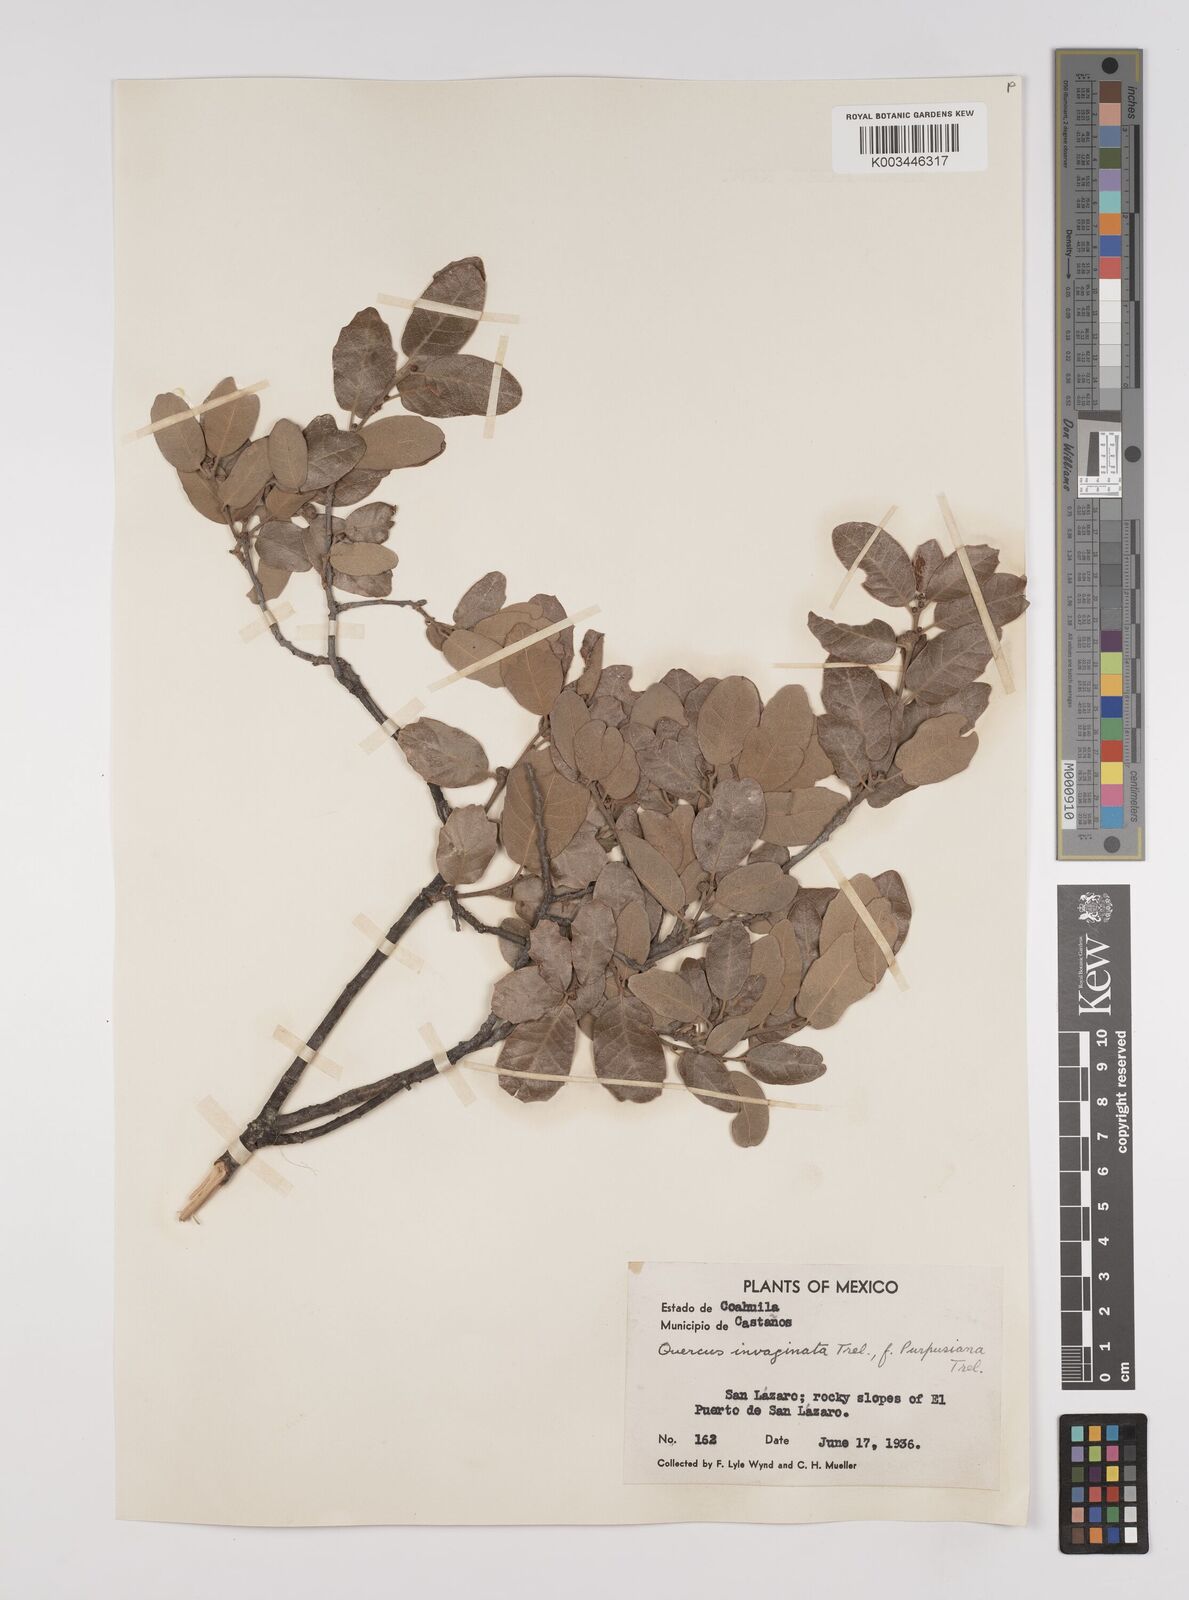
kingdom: Plantae
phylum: Tracheophyta
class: Magnoliopsida
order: Fagales
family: Fagaceae
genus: Quercus
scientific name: Quercus invaginata
